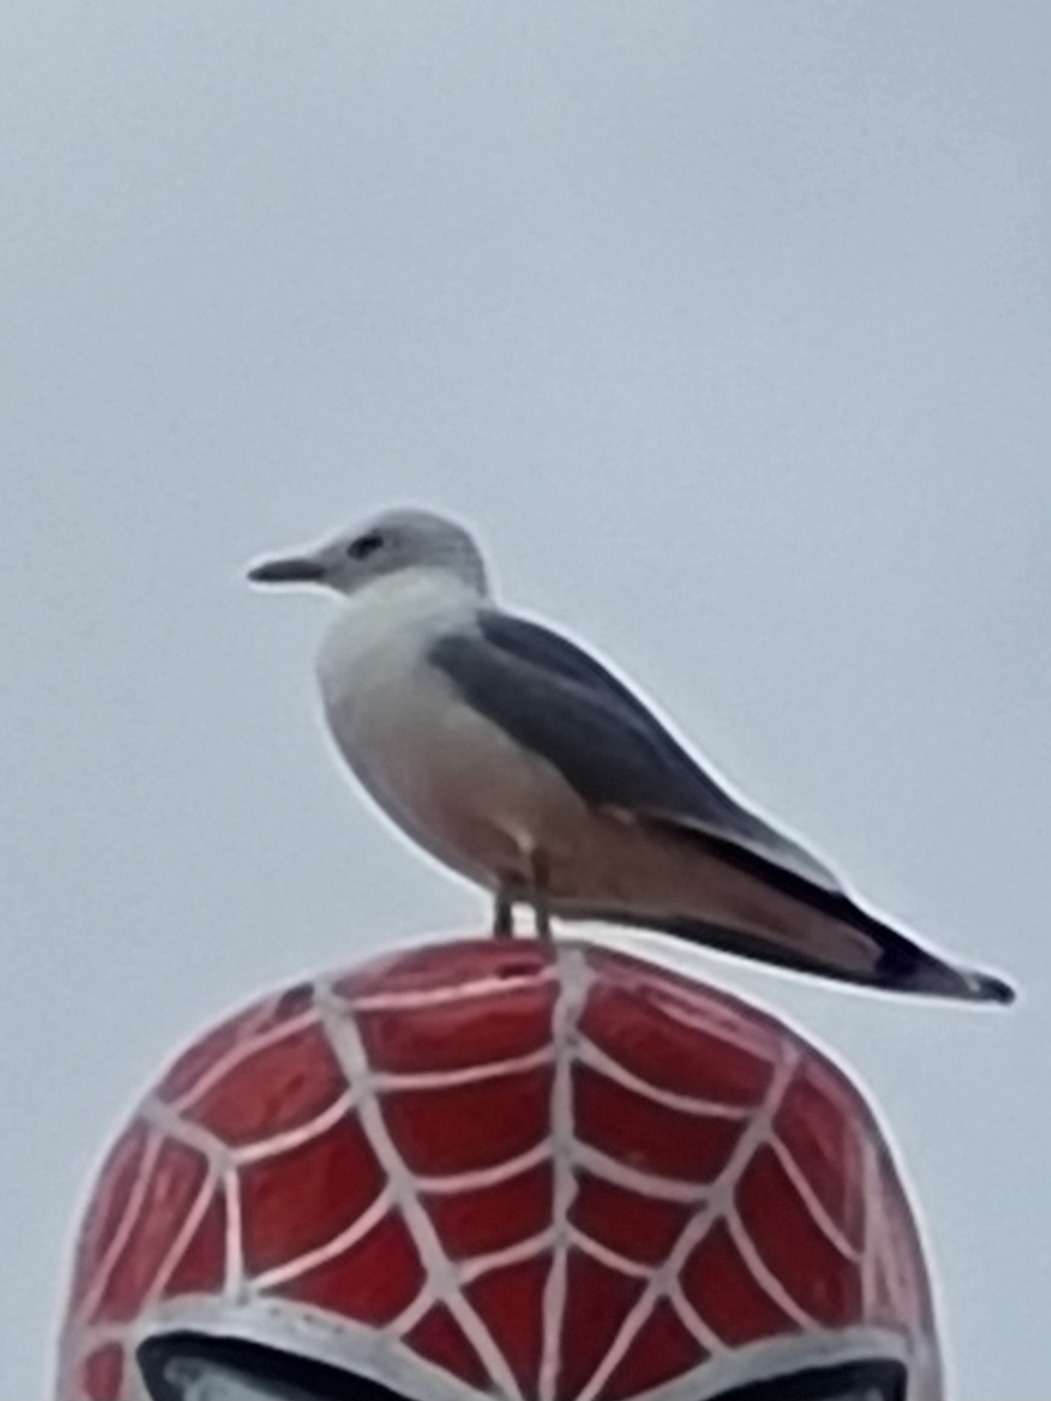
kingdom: Animalia
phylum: Chordata
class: Aves
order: Charadriiformes
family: Laridae
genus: Larus
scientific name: Larus canus
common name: Stormmåge
